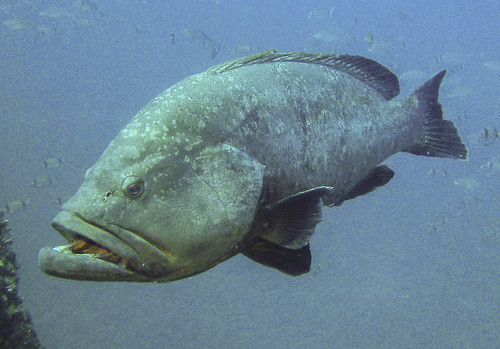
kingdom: Animalia
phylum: Chordata
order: Perciformes
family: Serranidae
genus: Epinephelus
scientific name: Epinephelus marginatus
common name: Dusky grouper
